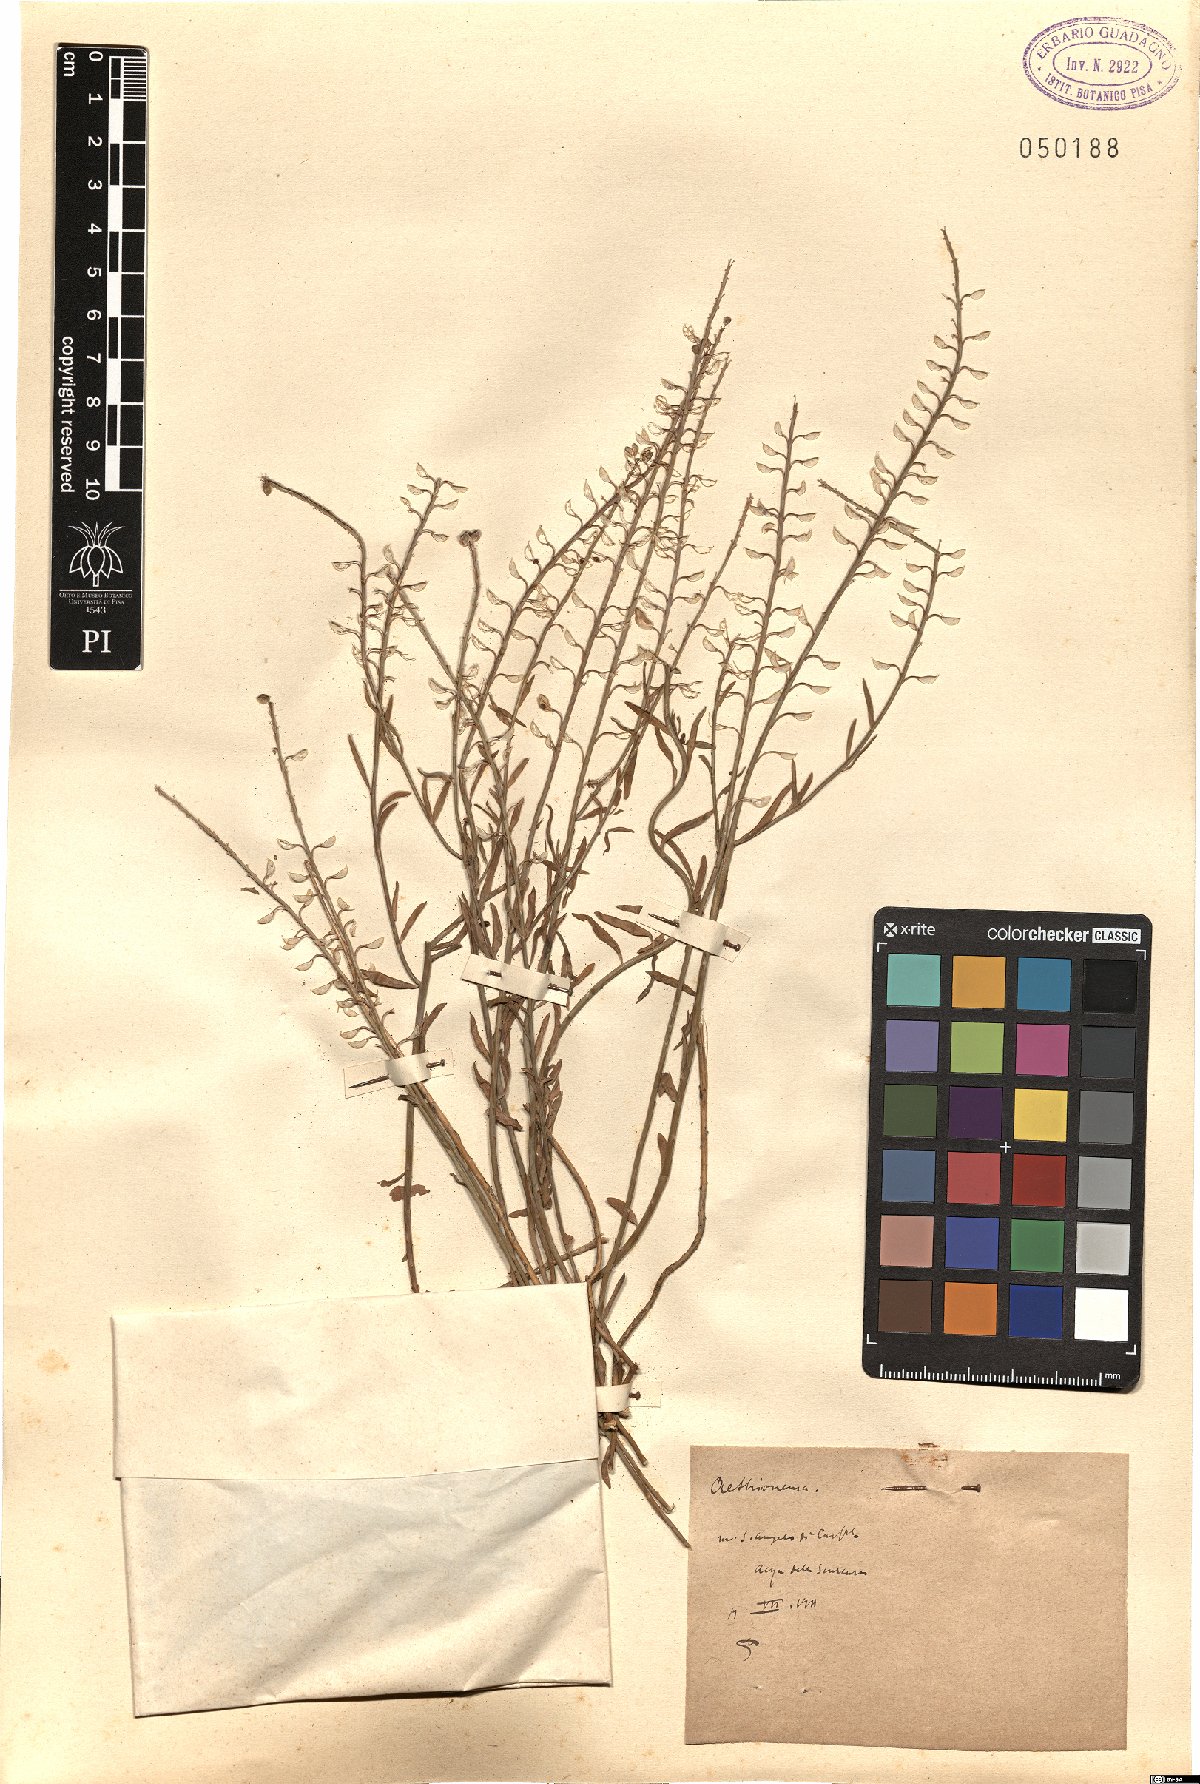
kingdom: Plantae
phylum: Tracheophyta
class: Magnoliopsida
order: Brassicales
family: Brassicaceae
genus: Aethionema
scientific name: Aethionema
